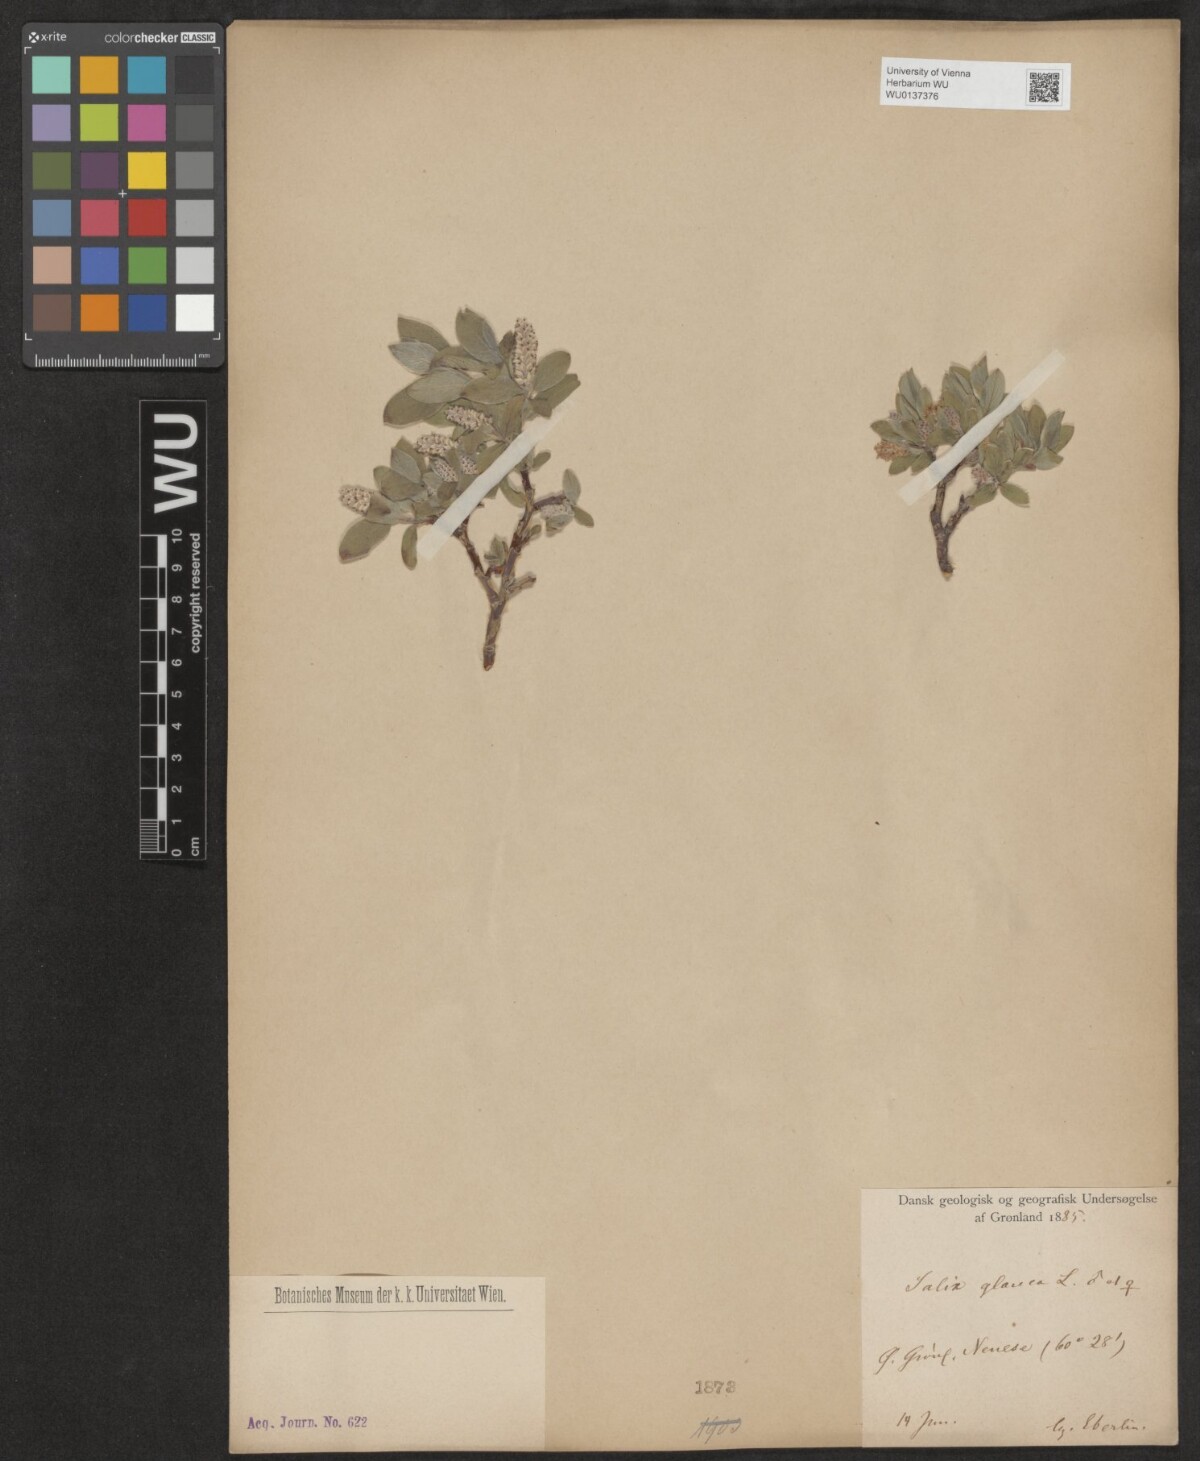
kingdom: Plantae
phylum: Tracheophyta
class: Magnoliopsida
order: Malpighiales
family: Salicaceae
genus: Salix
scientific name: Salix glauca
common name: Glaucous willow
